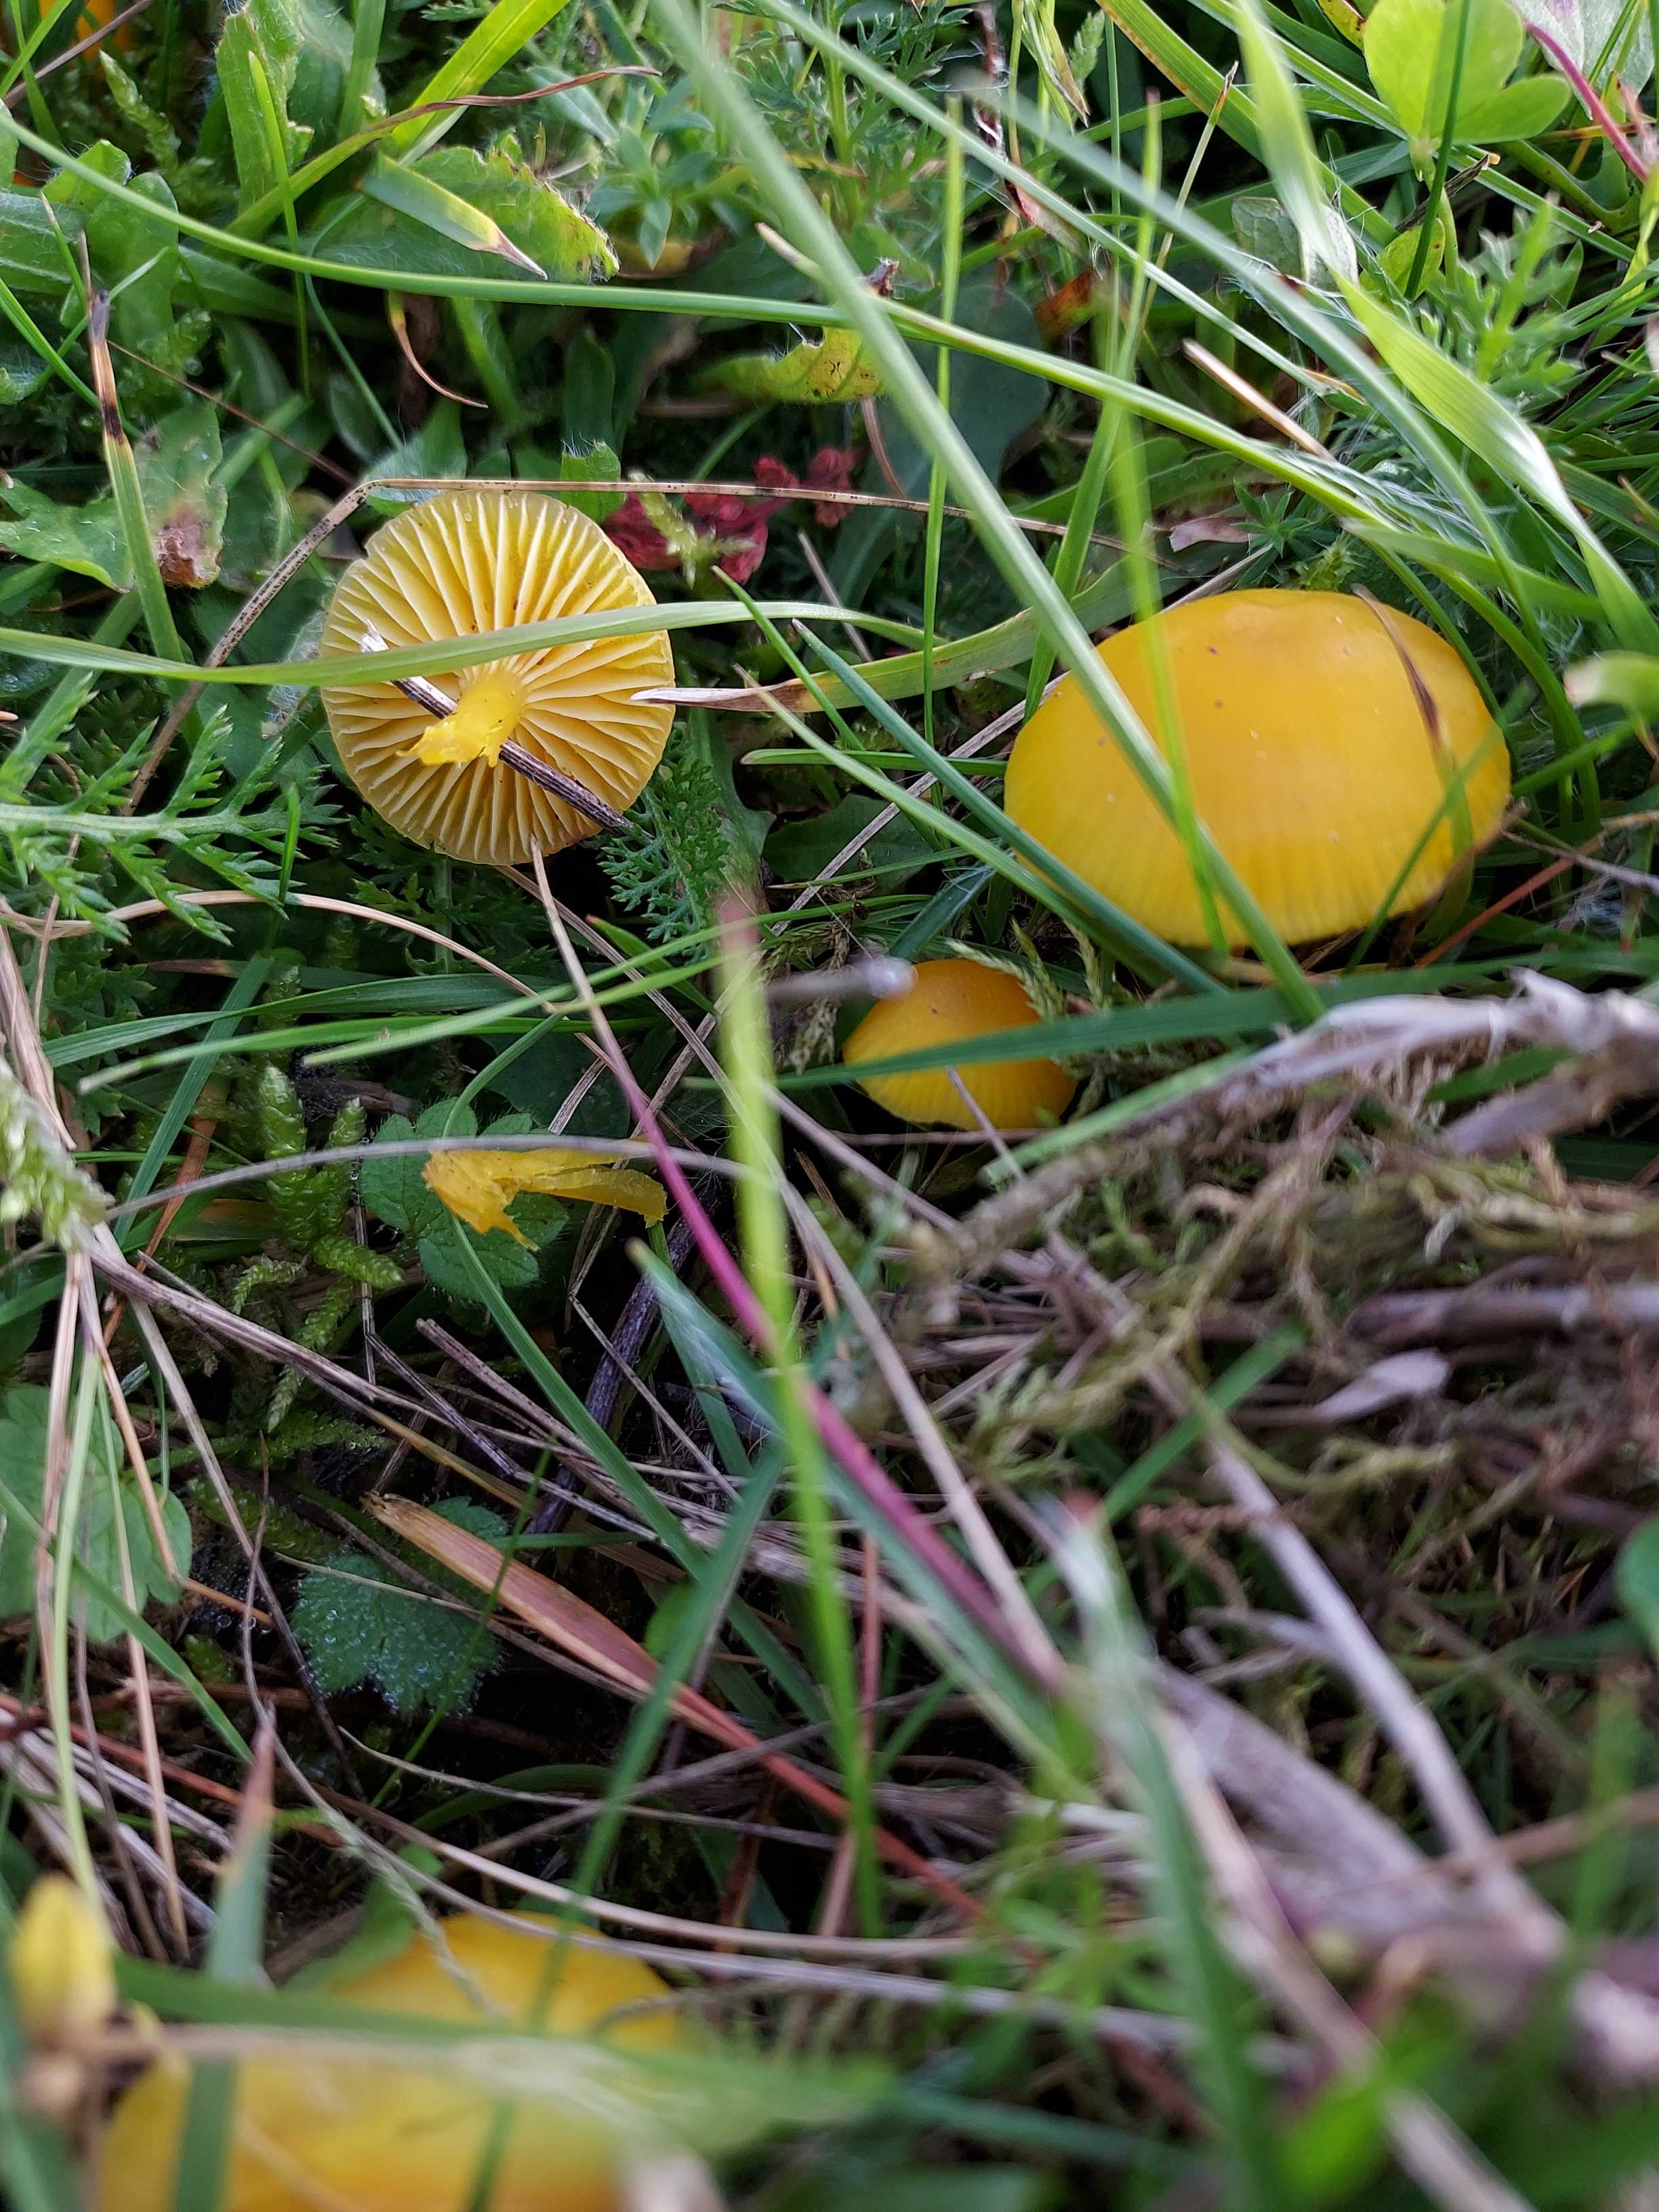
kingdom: Fungi
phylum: Basidiomycota
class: Agaricomycetes
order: Agaricales
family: Hygrophoraceae
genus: Hygrocybe
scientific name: Hygrocybe ceracea
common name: voksgul vokshat
